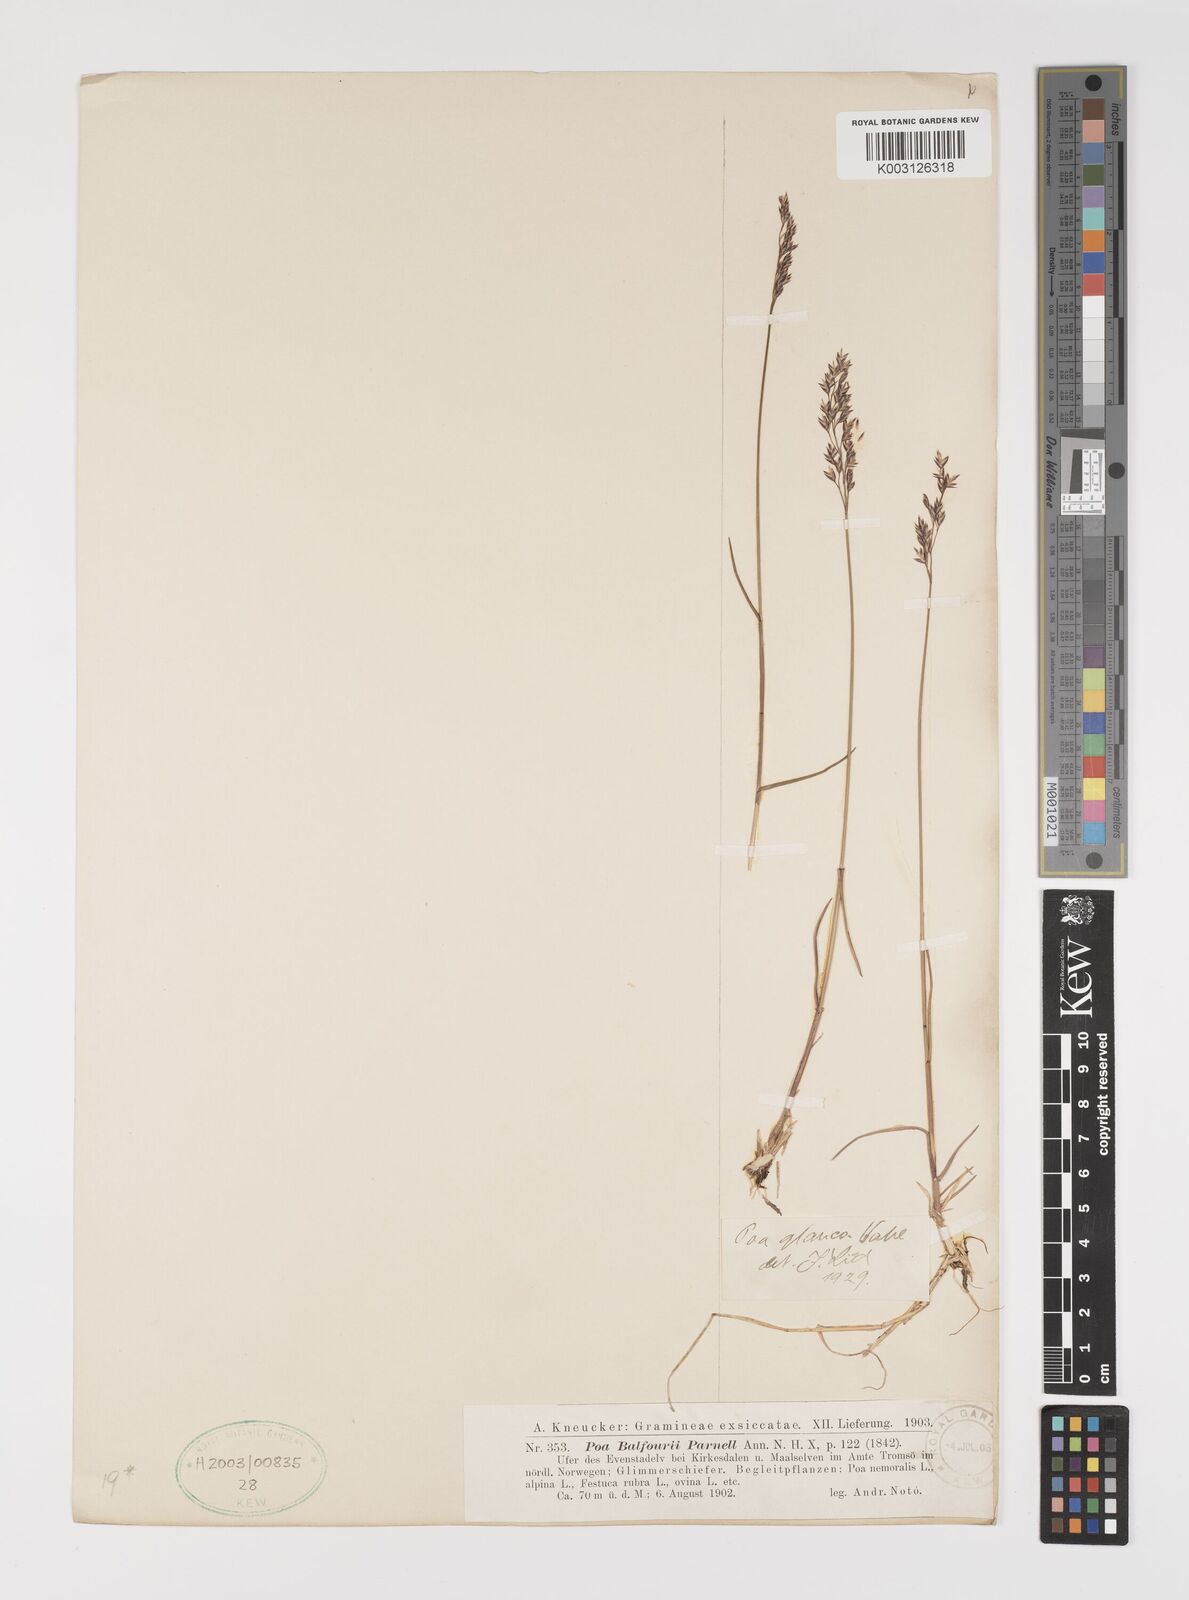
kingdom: Plantae
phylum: Tracheophyta
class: Liliopsida
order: Poales
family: Poaceae
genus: Poa
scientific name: Poa glauca
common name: Glaucous bluegrass
